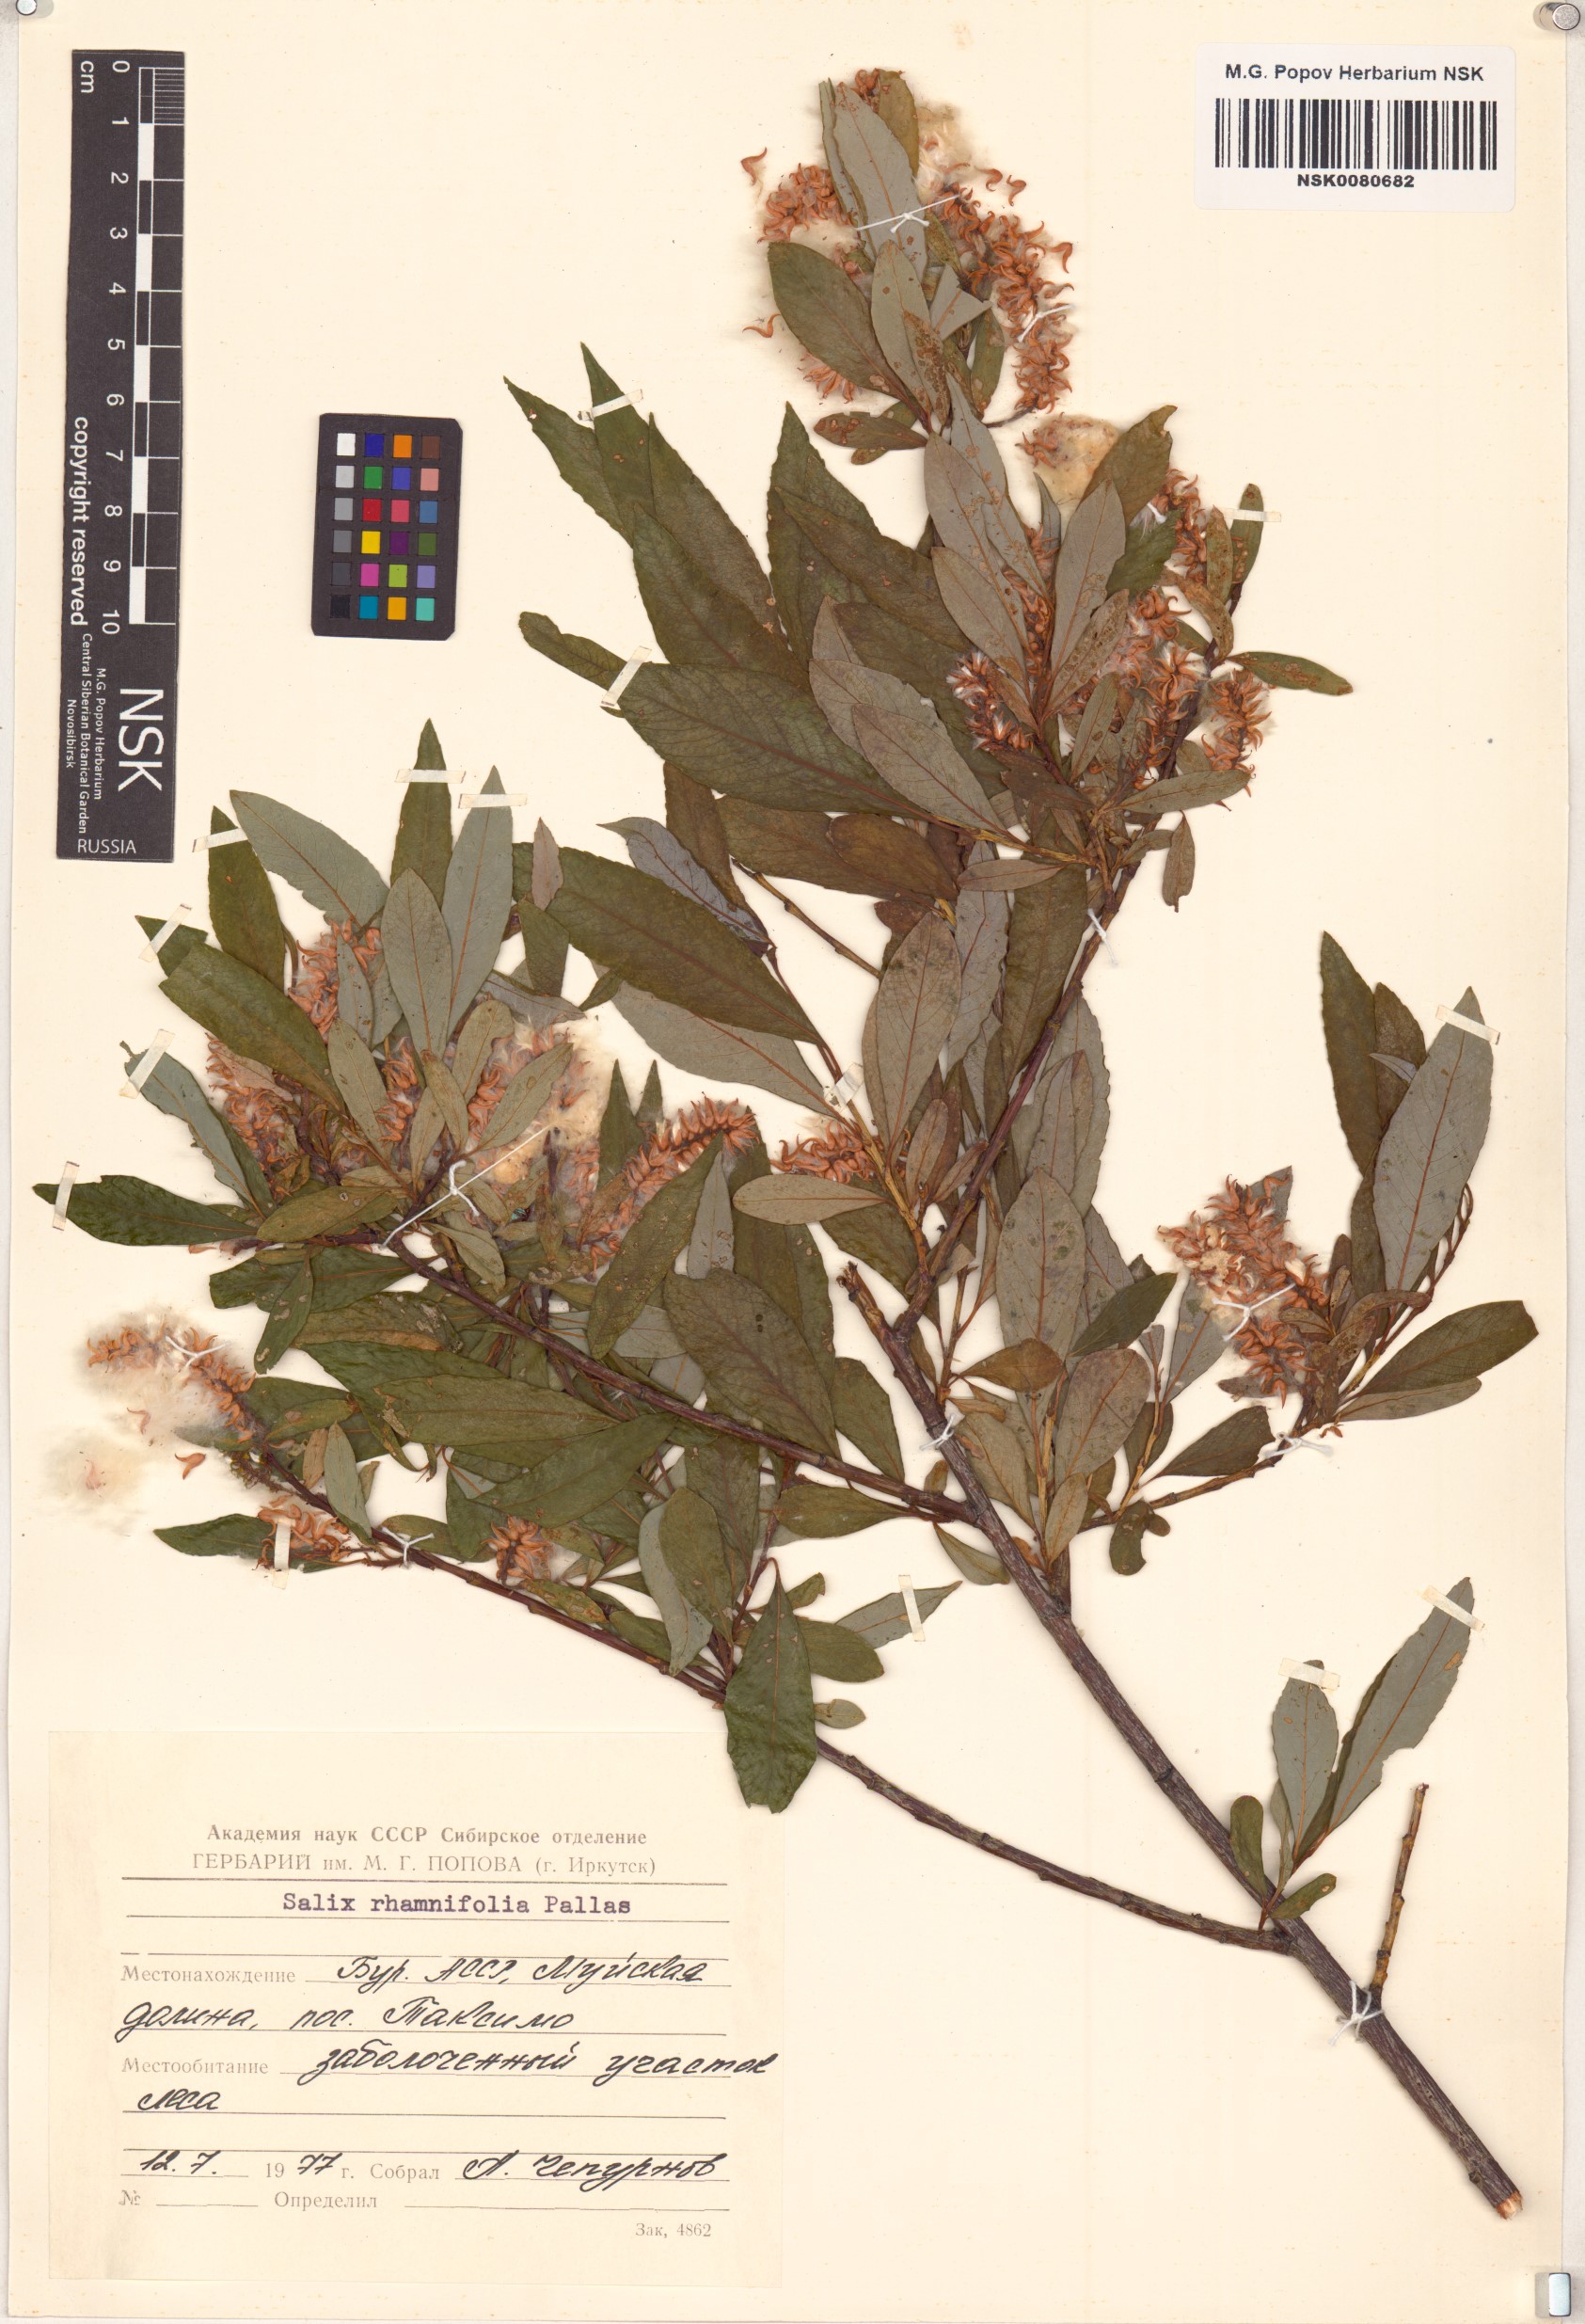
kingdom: Plantae
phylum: Tracheophyta
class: Magnoliopsida
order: Malpighiales
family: Salicaceae
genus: Salix
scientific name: Salix rhamnifolia
